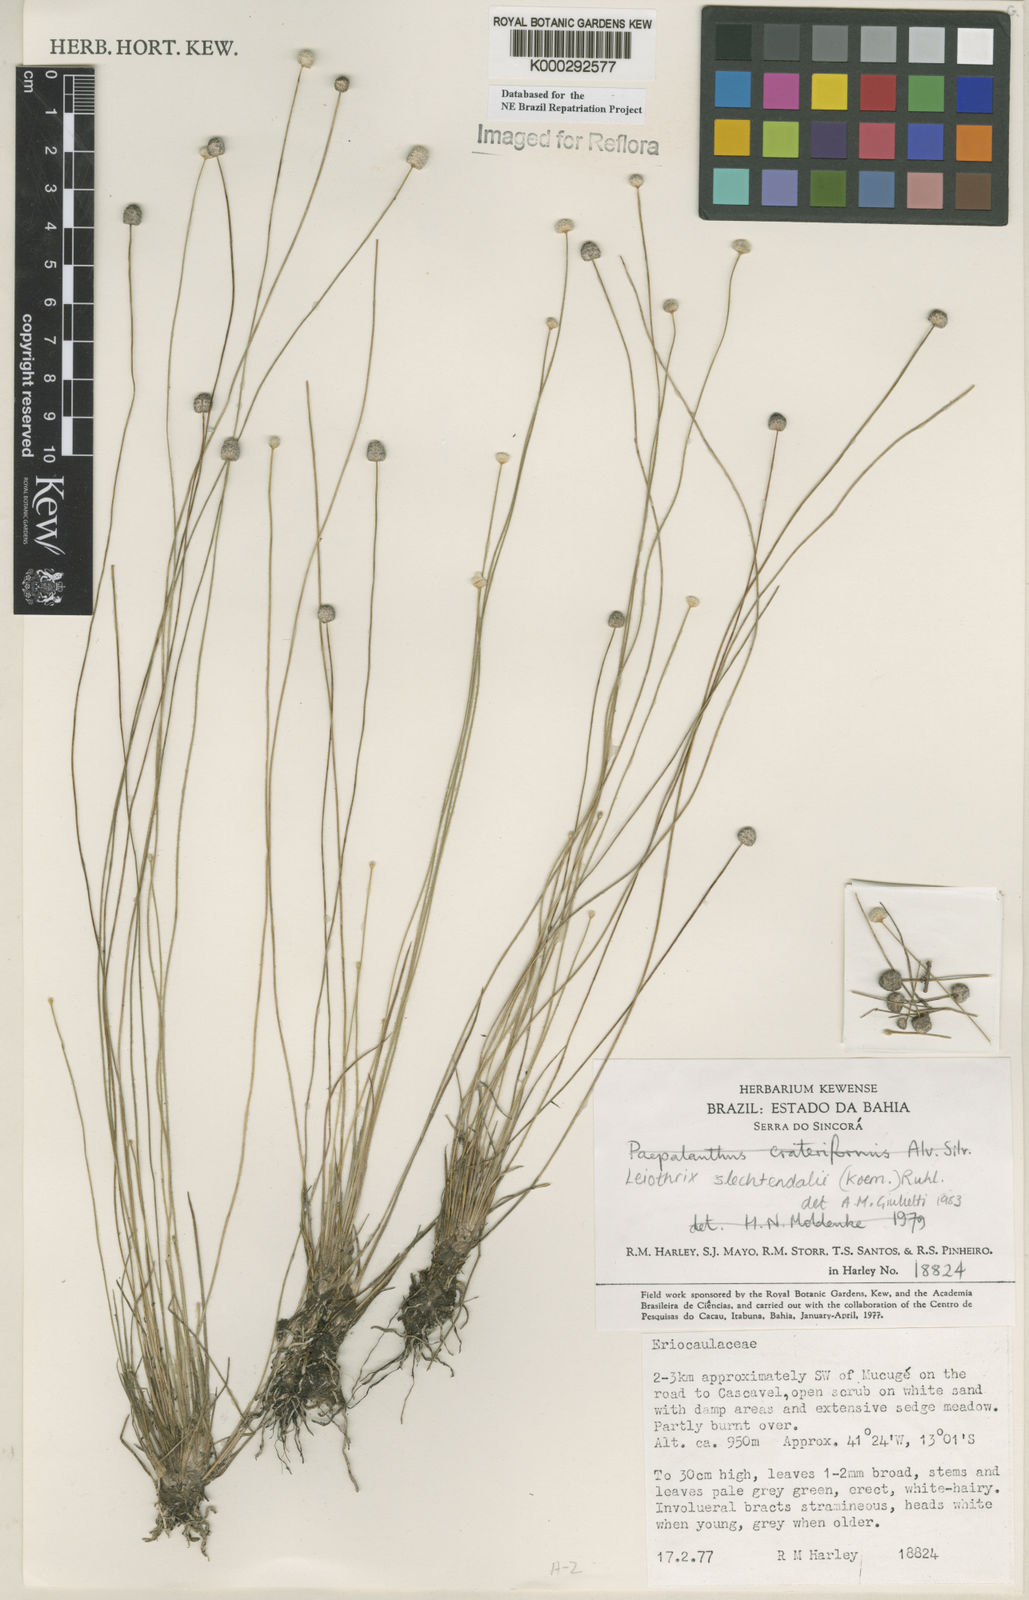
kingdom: Plantae
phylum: Tracheophyta
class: Liliopsida
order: Poales
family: Eriocaulaceae
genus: Leiothrix
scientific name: Leiothrix schlechtendalii
